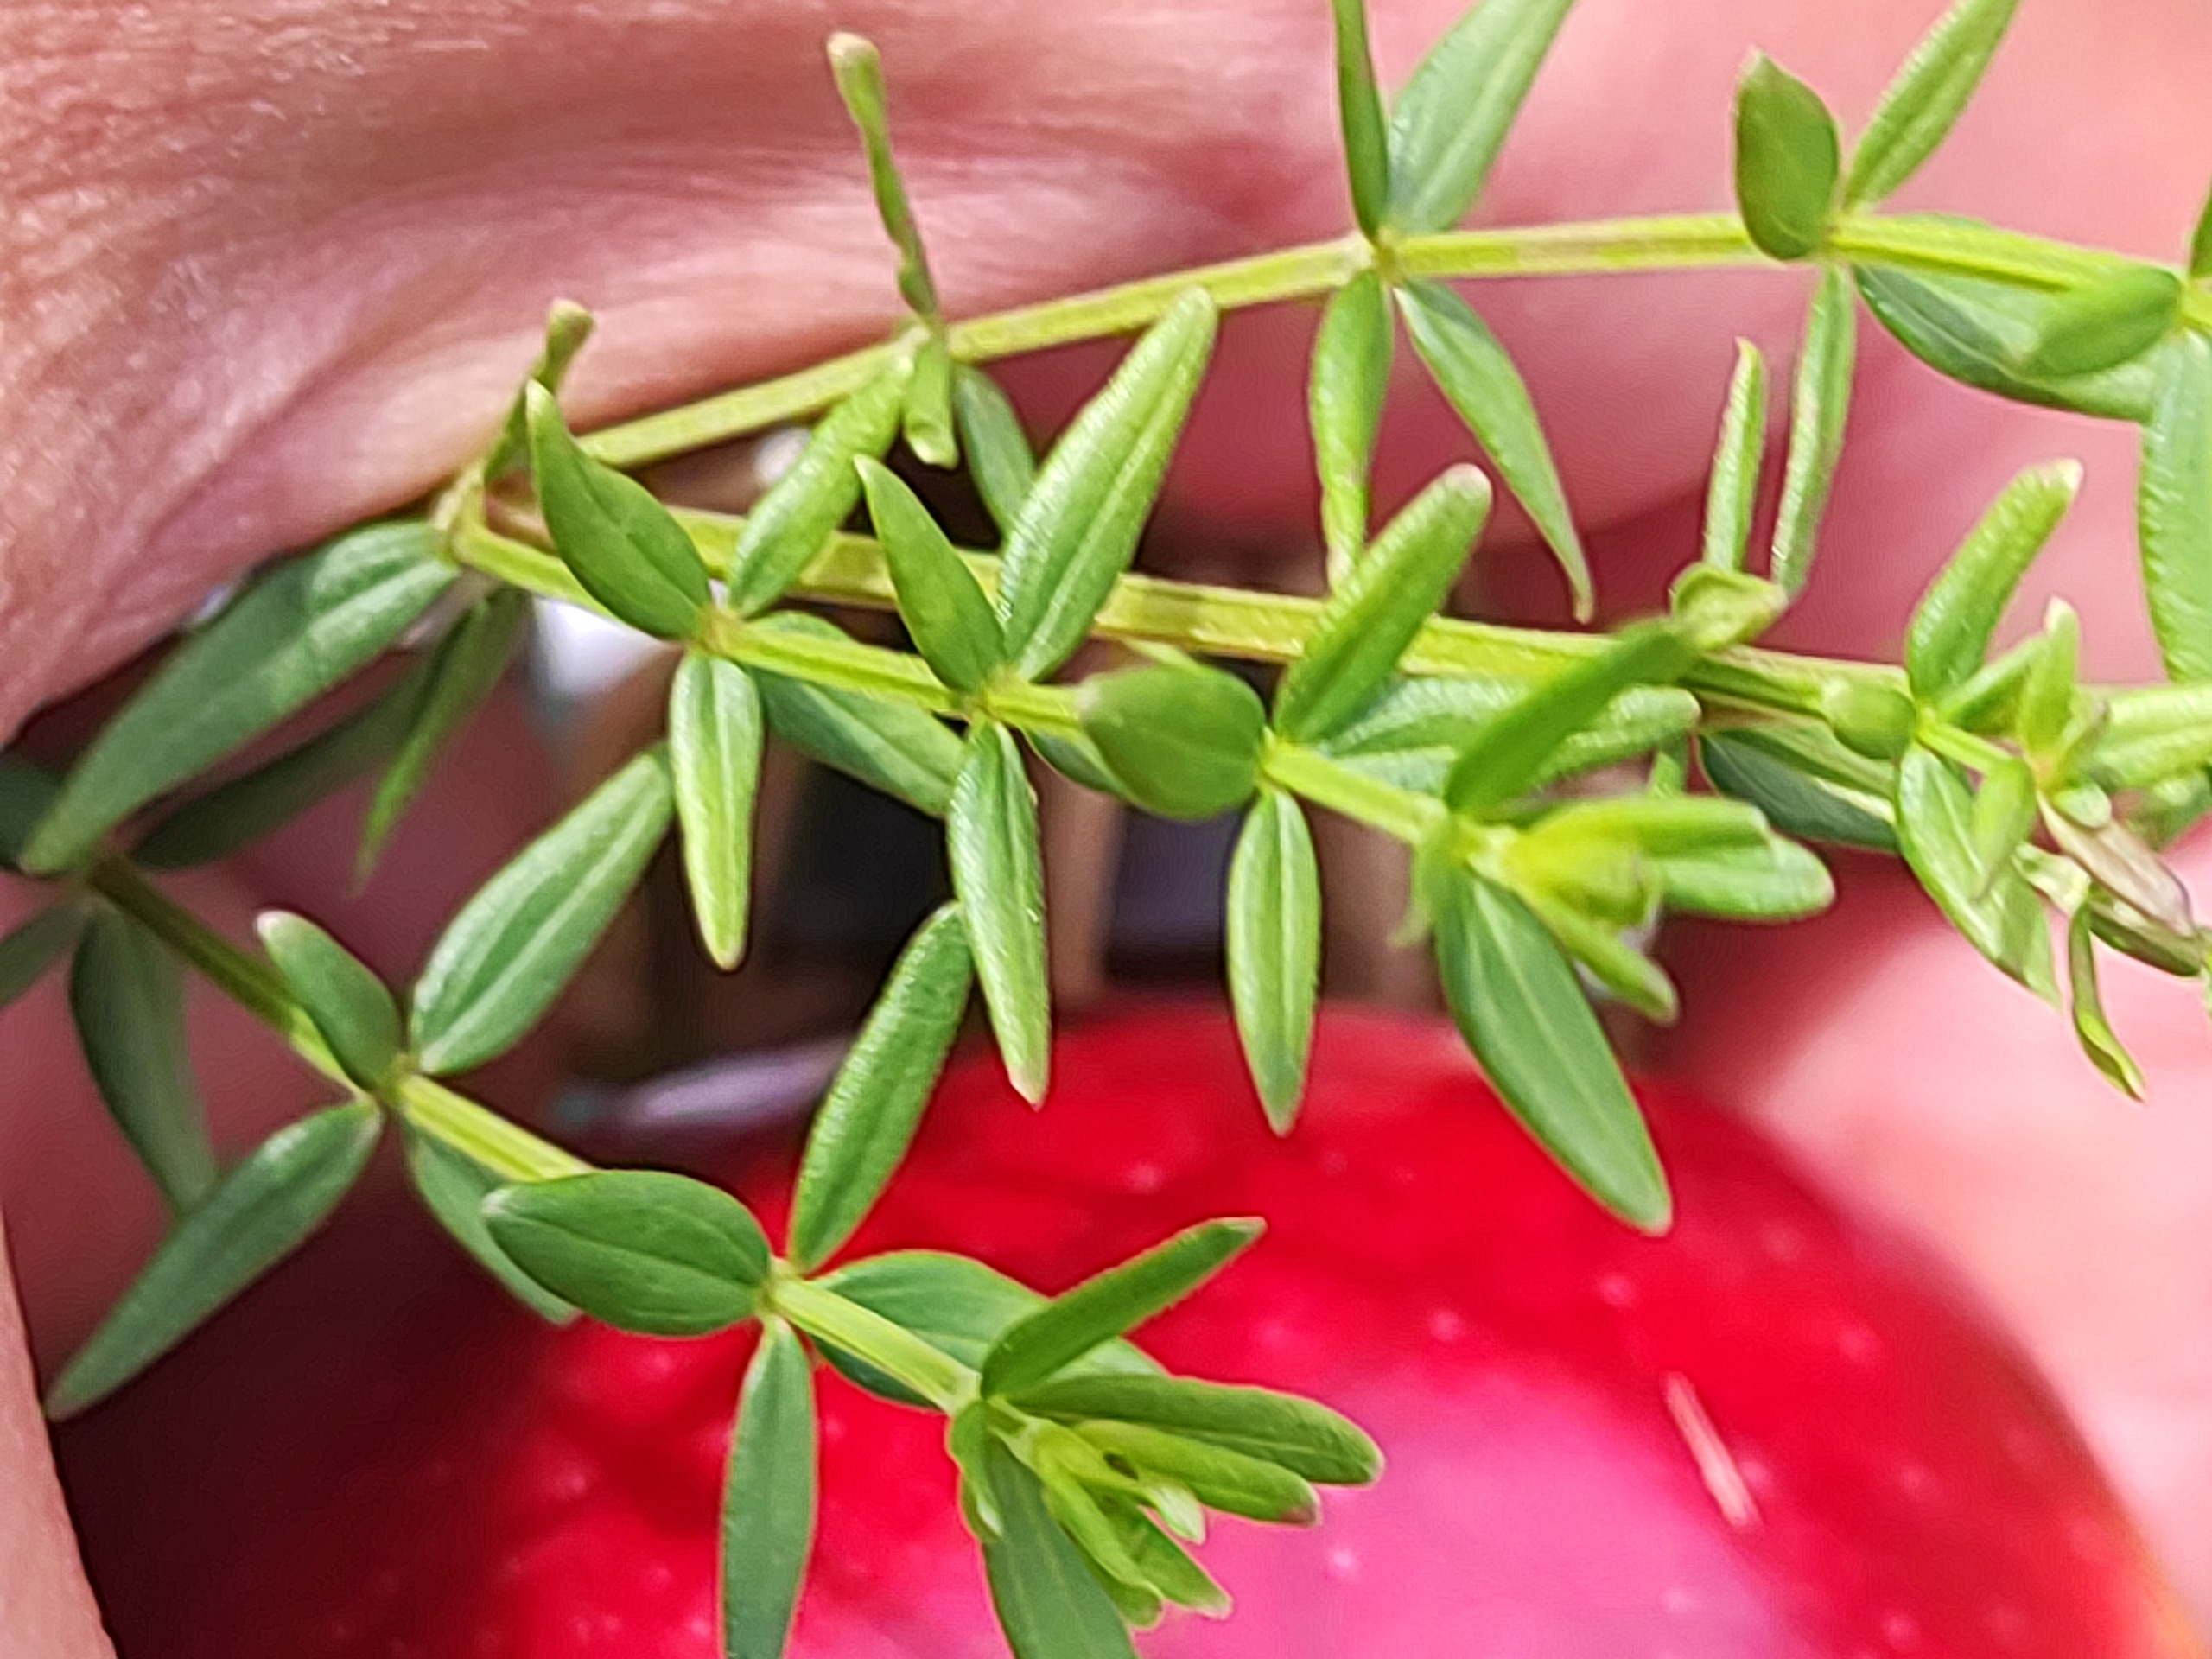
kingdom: Plantae
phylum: Tracheophyta
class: Magnoliopsida
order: Gentianales
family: Rubiaceae
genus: Galium
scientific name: Galium boreale
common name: Trenervet snerre
